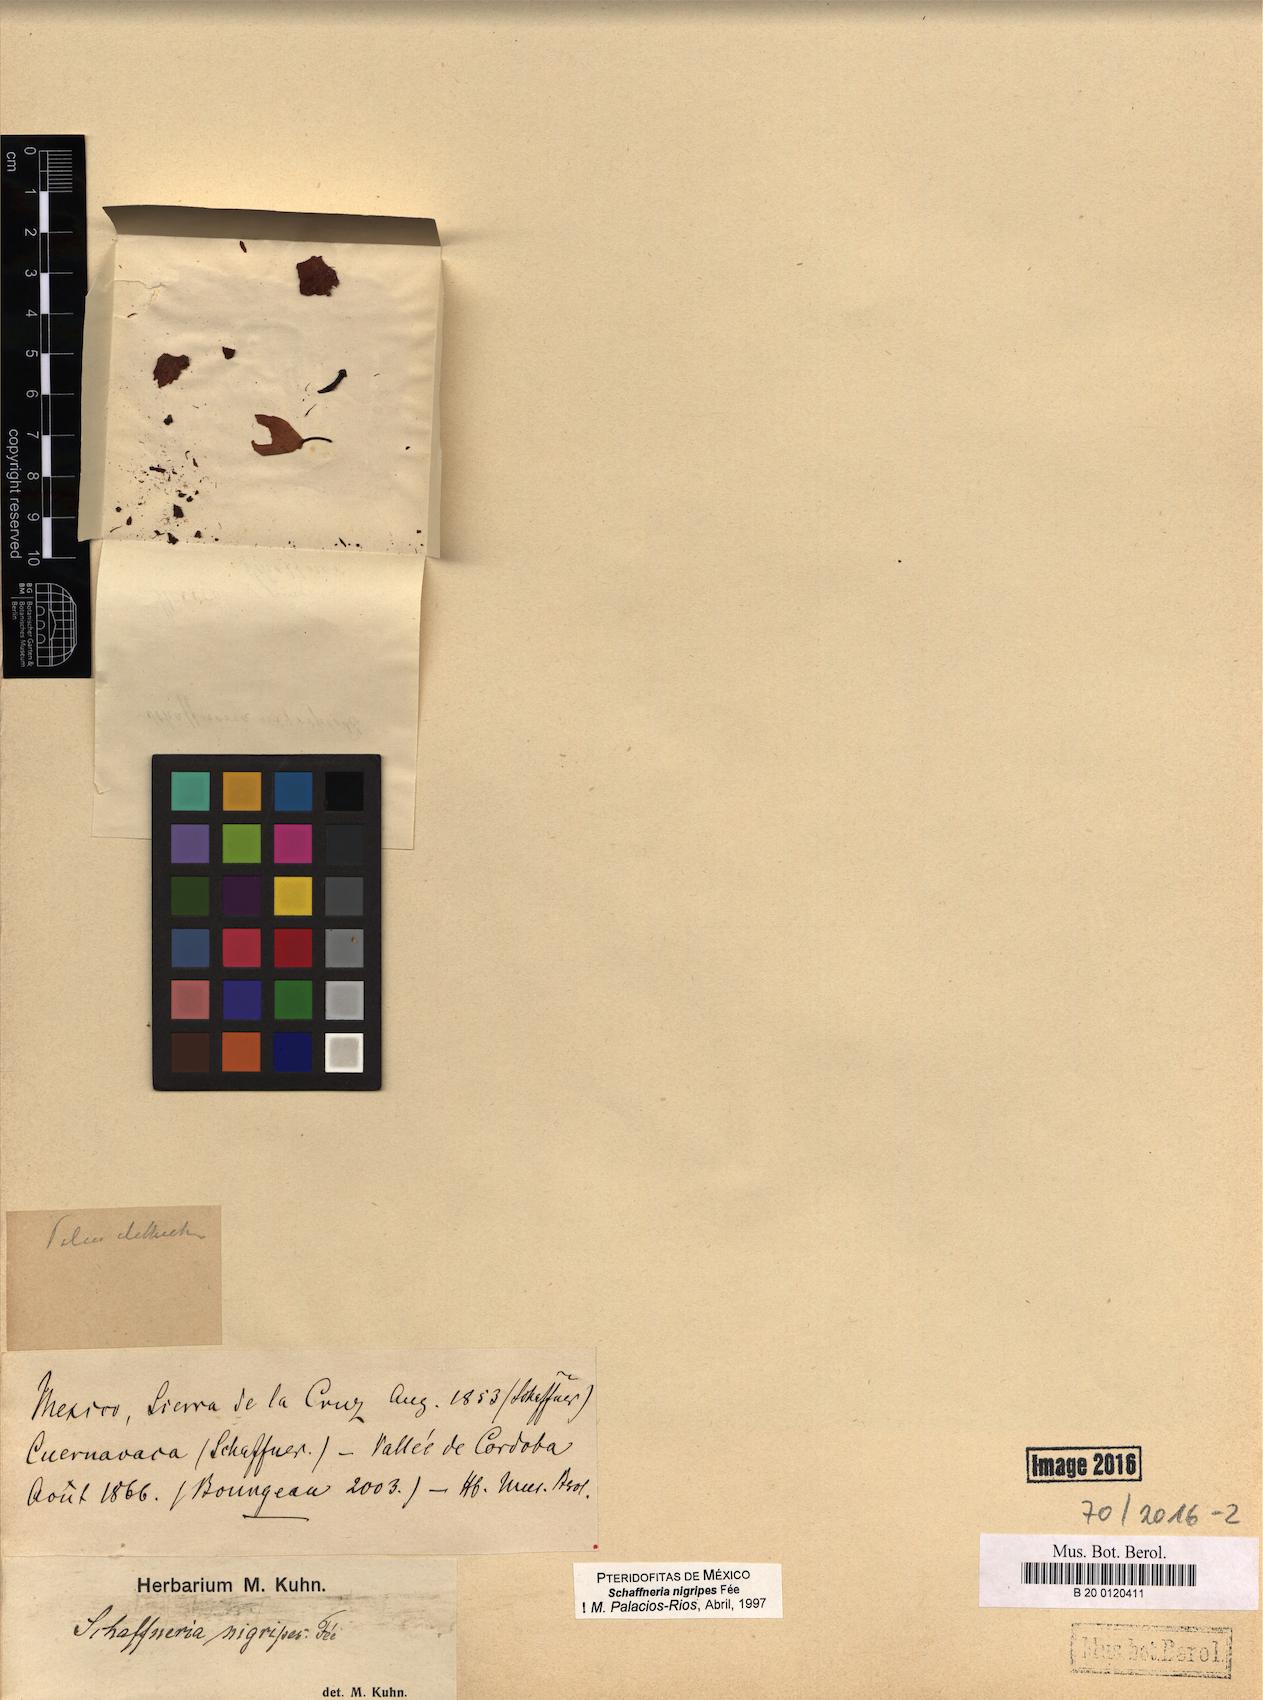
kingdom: Plantae
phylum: Tracheophyta
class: Polypodiopsida
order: Polypodiales
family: Aspleniaceae
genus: Asplenium
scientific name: Asplenium nigripes
